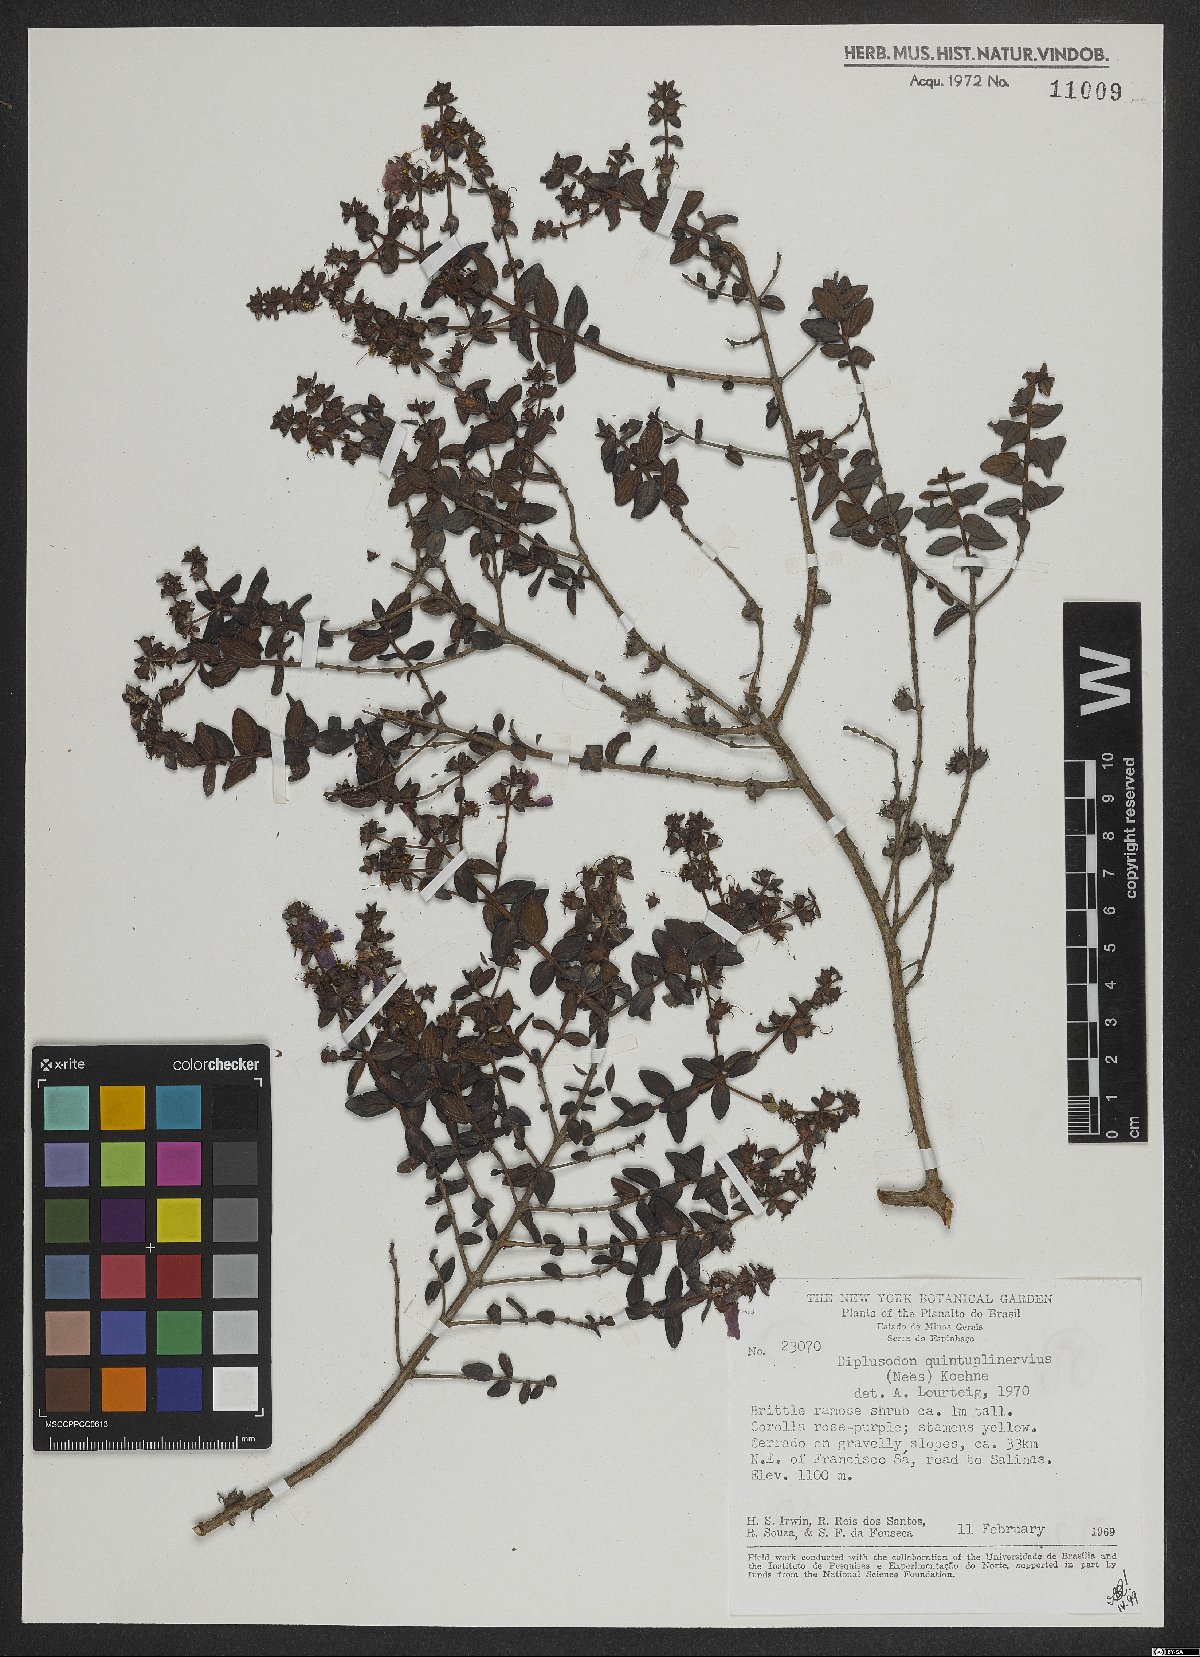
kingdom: Plantae
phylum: Tracheophyta
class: Magnoliopsida
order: Myrtales
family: Lythraceae
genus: Diplusodon
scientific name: Diplusodon quintuplinervius
